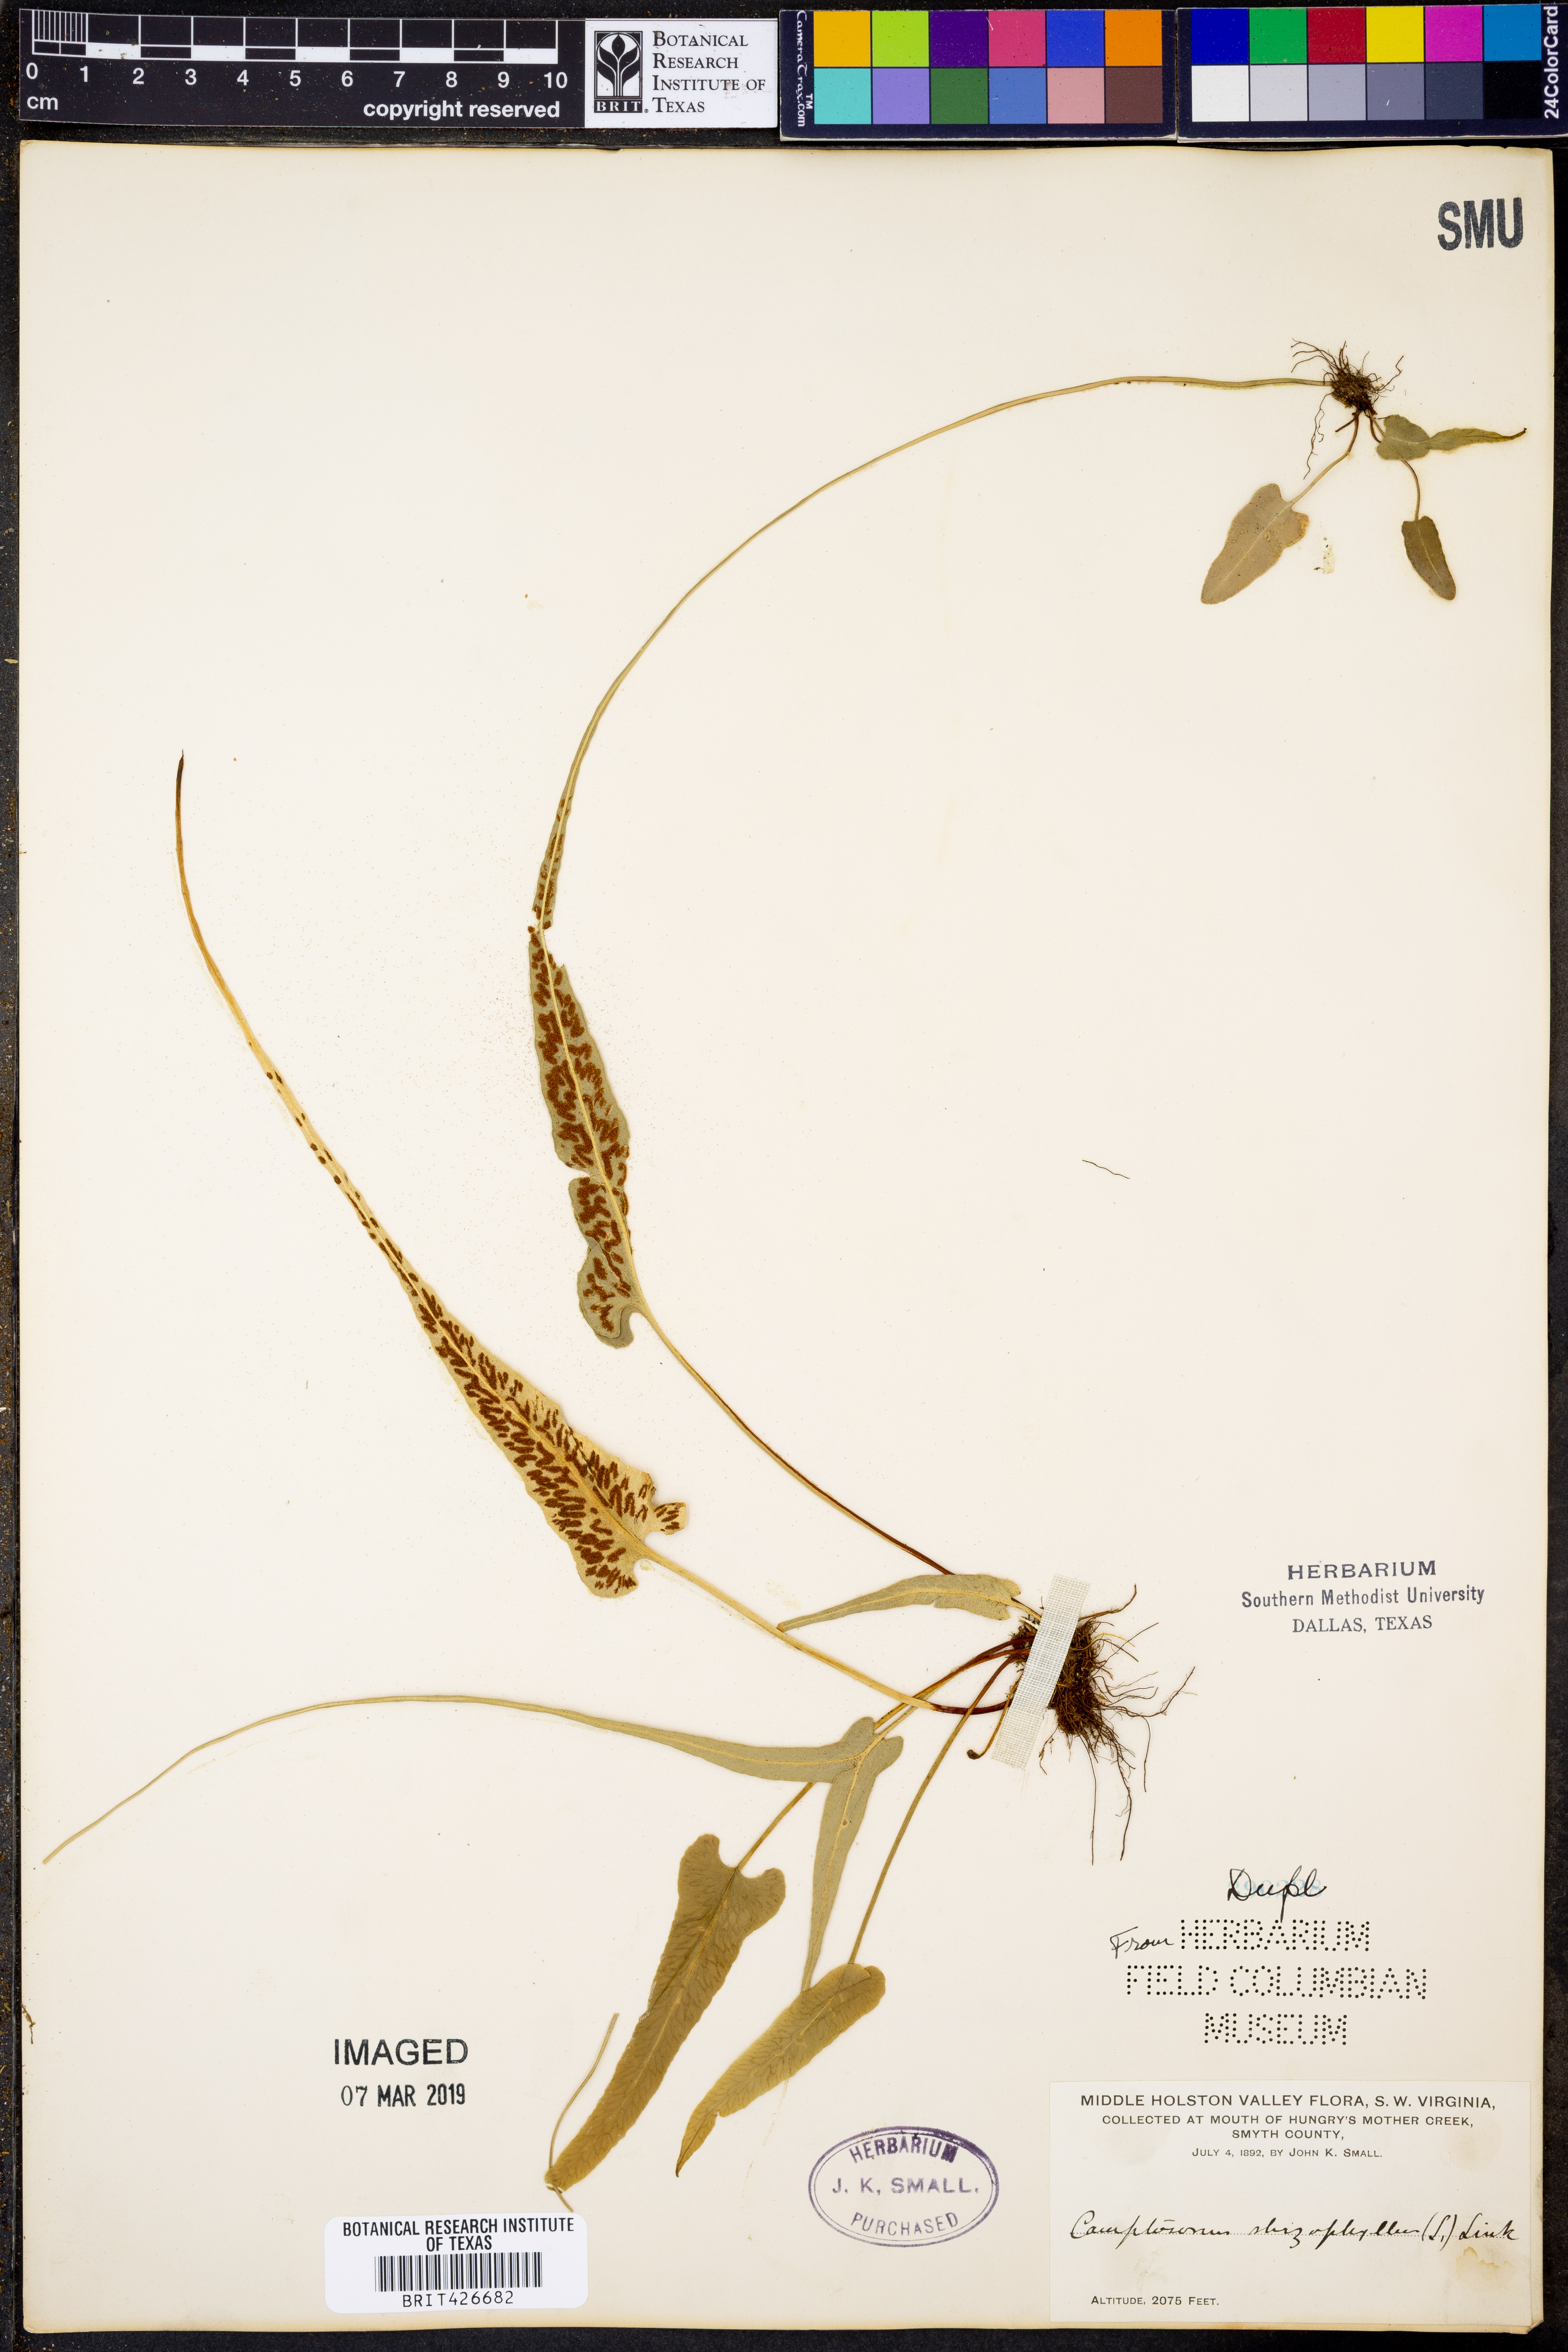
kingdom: Plantae
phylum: Tracheophyta
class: Polypodiopsida
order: Polypodiales
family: Aspleniaceae
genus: Asplenium
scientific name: Asplenium rhizophyllum
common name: Walking fern
